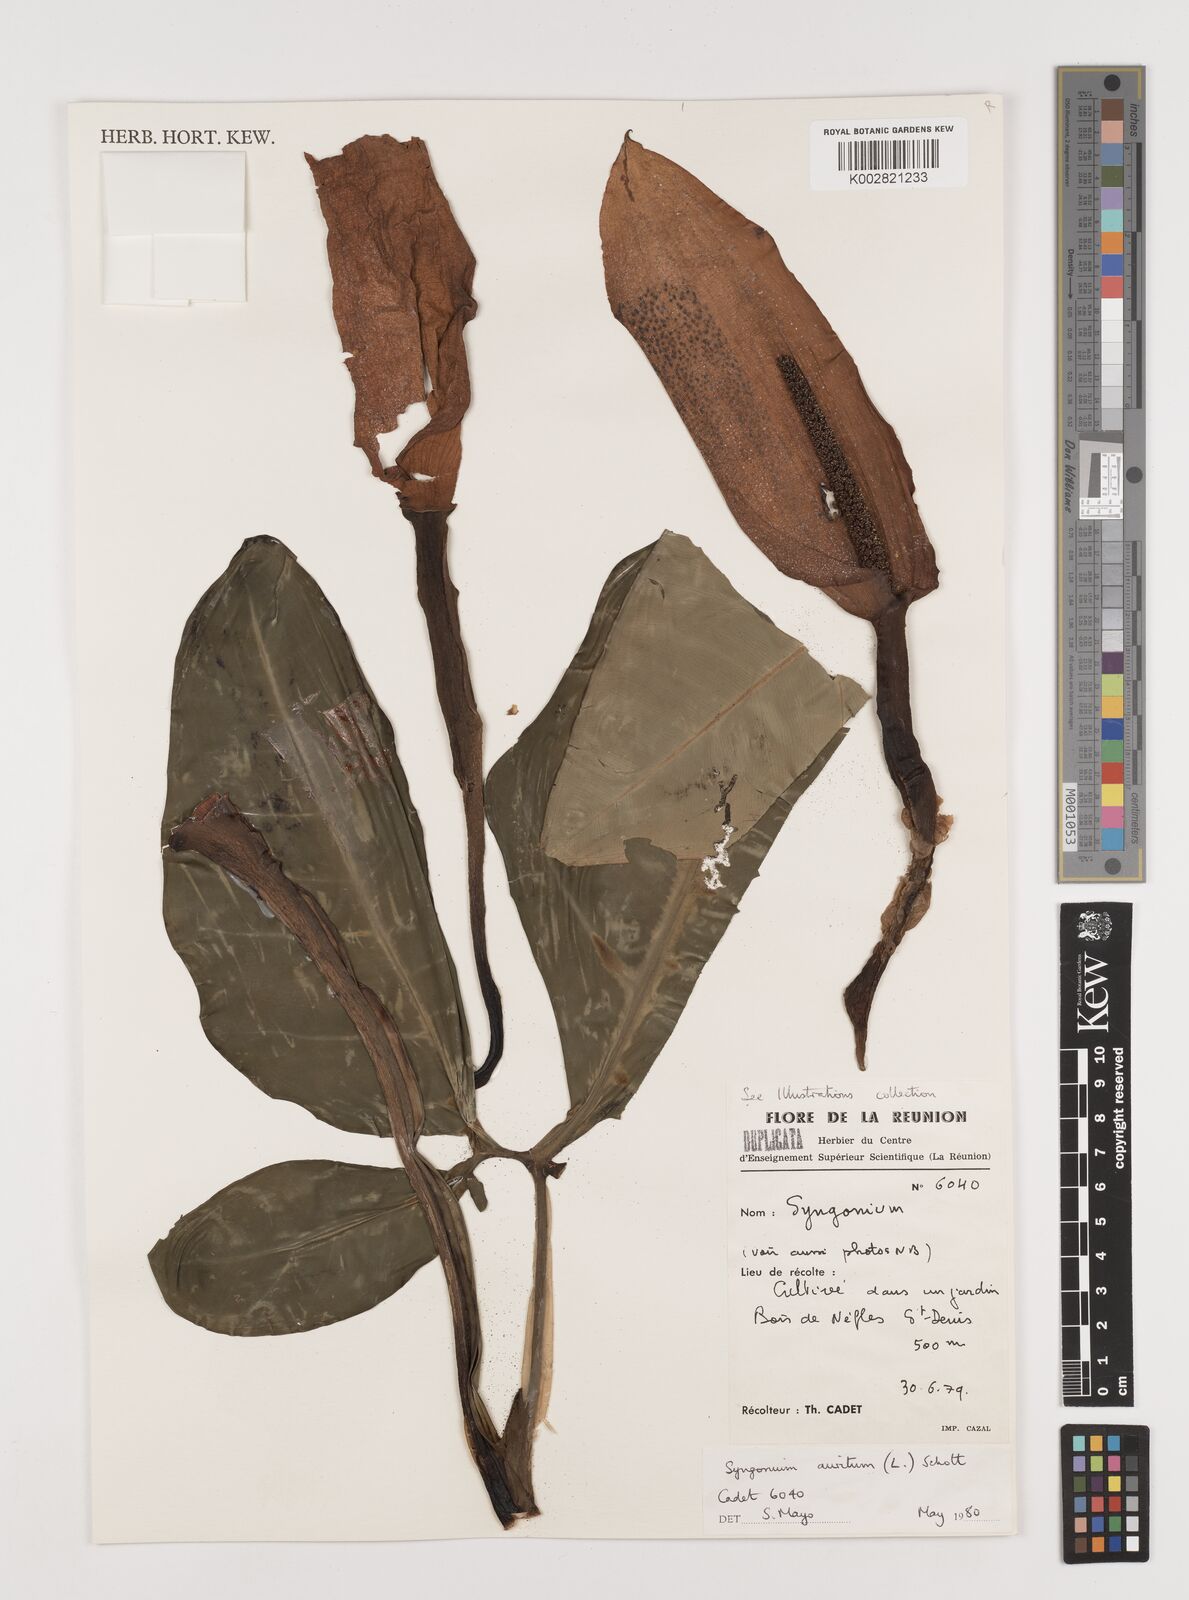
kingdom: Plantae
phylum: Tracheophyta
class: Liliopsida
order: Alismatales
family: Araceae
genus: Syngonium
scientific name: Syngonium auritum
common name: Five-fingers
